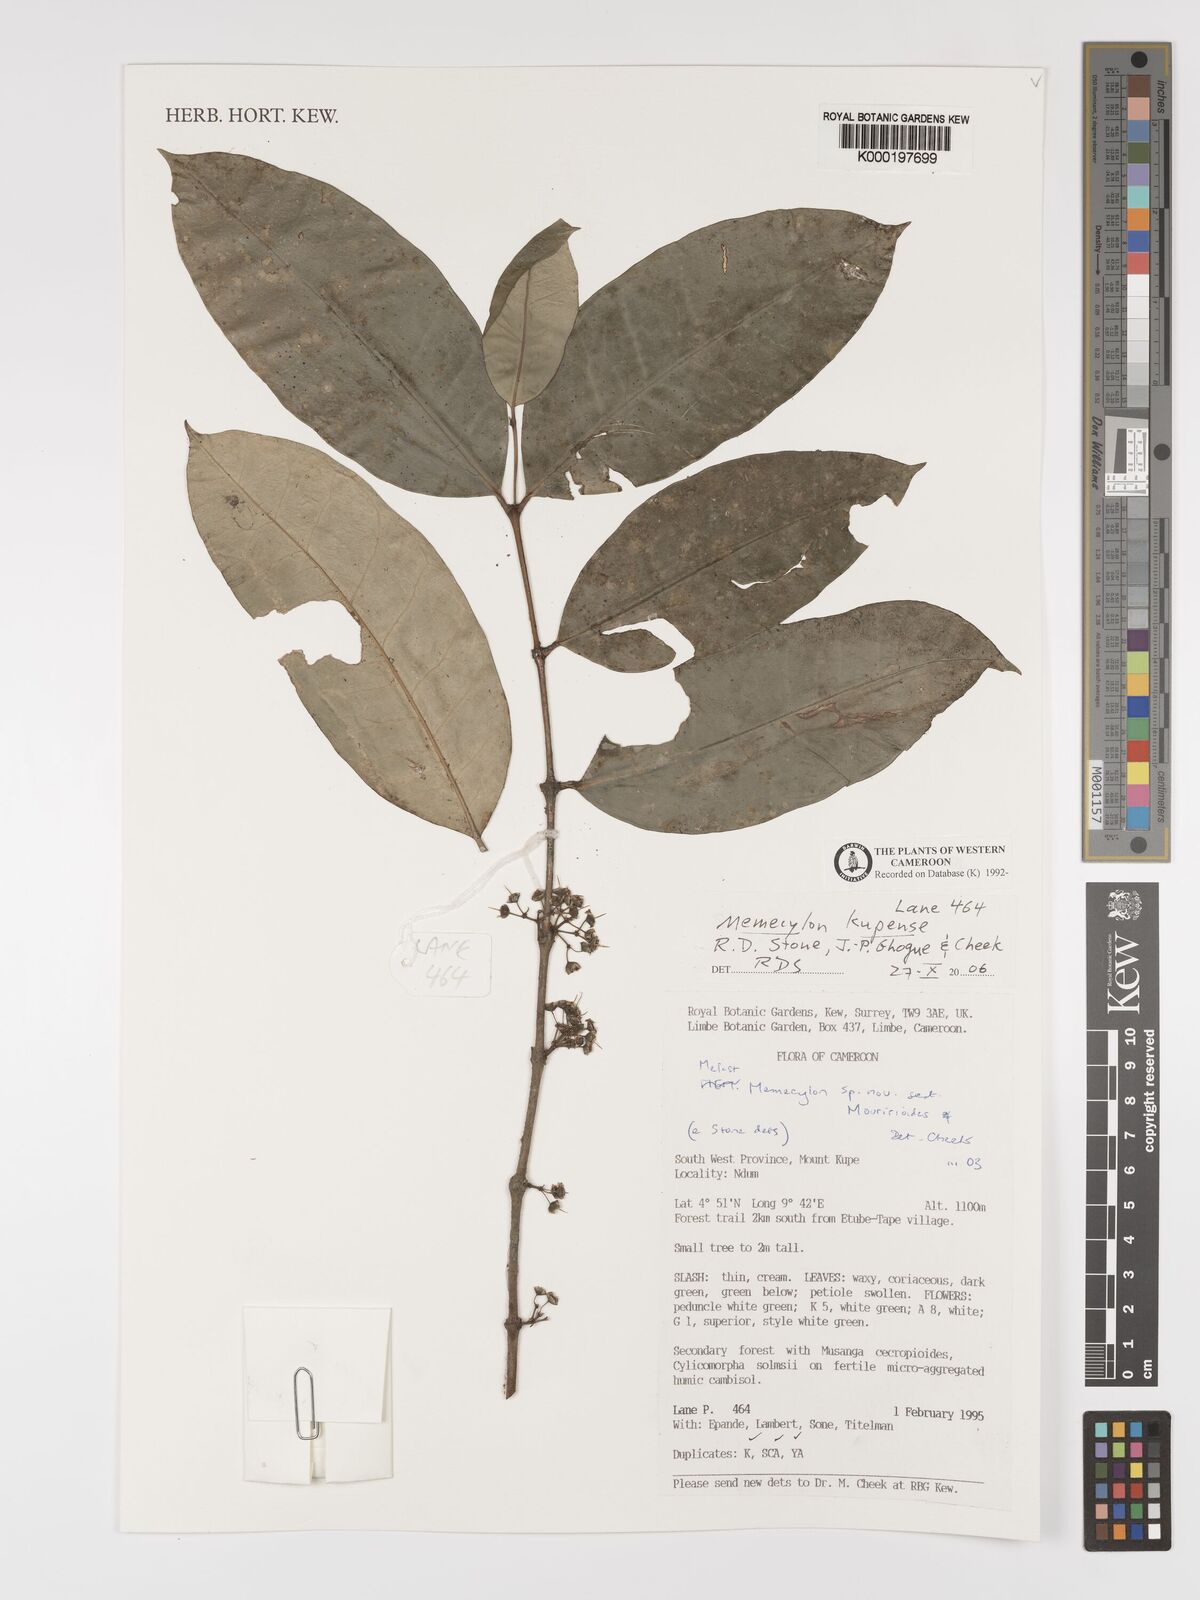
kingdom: Plantae
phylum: Tracheophyta
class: Magnoliopsida
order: Myrtales
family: Melastomataceae
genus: Memecylon
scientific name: Memecylon
